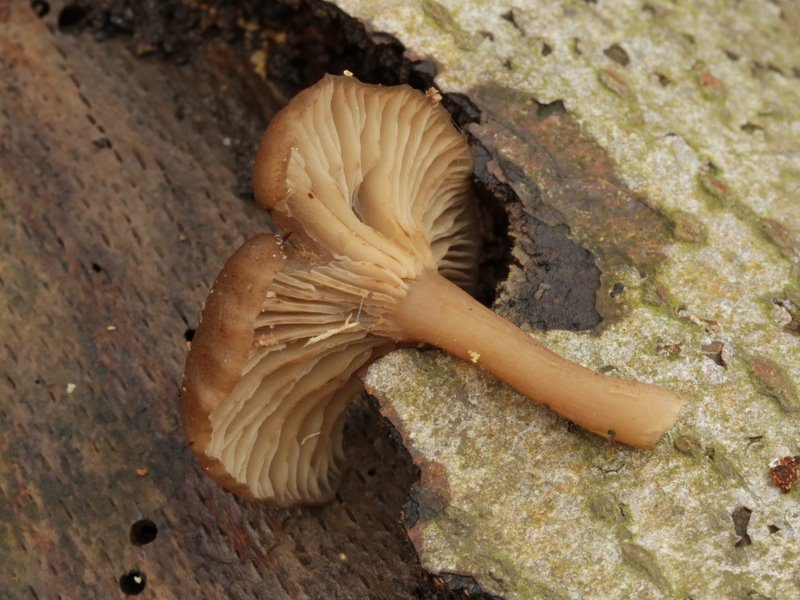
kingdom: Fungi
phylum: Basidiomycota
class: Agaricomycetes
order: Agaricales
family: Pseudoclitocybaceae
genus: Pseudoclitocybe
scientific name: Pseudoclitocybe cyathiformis
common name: almindelig bægertragthat
